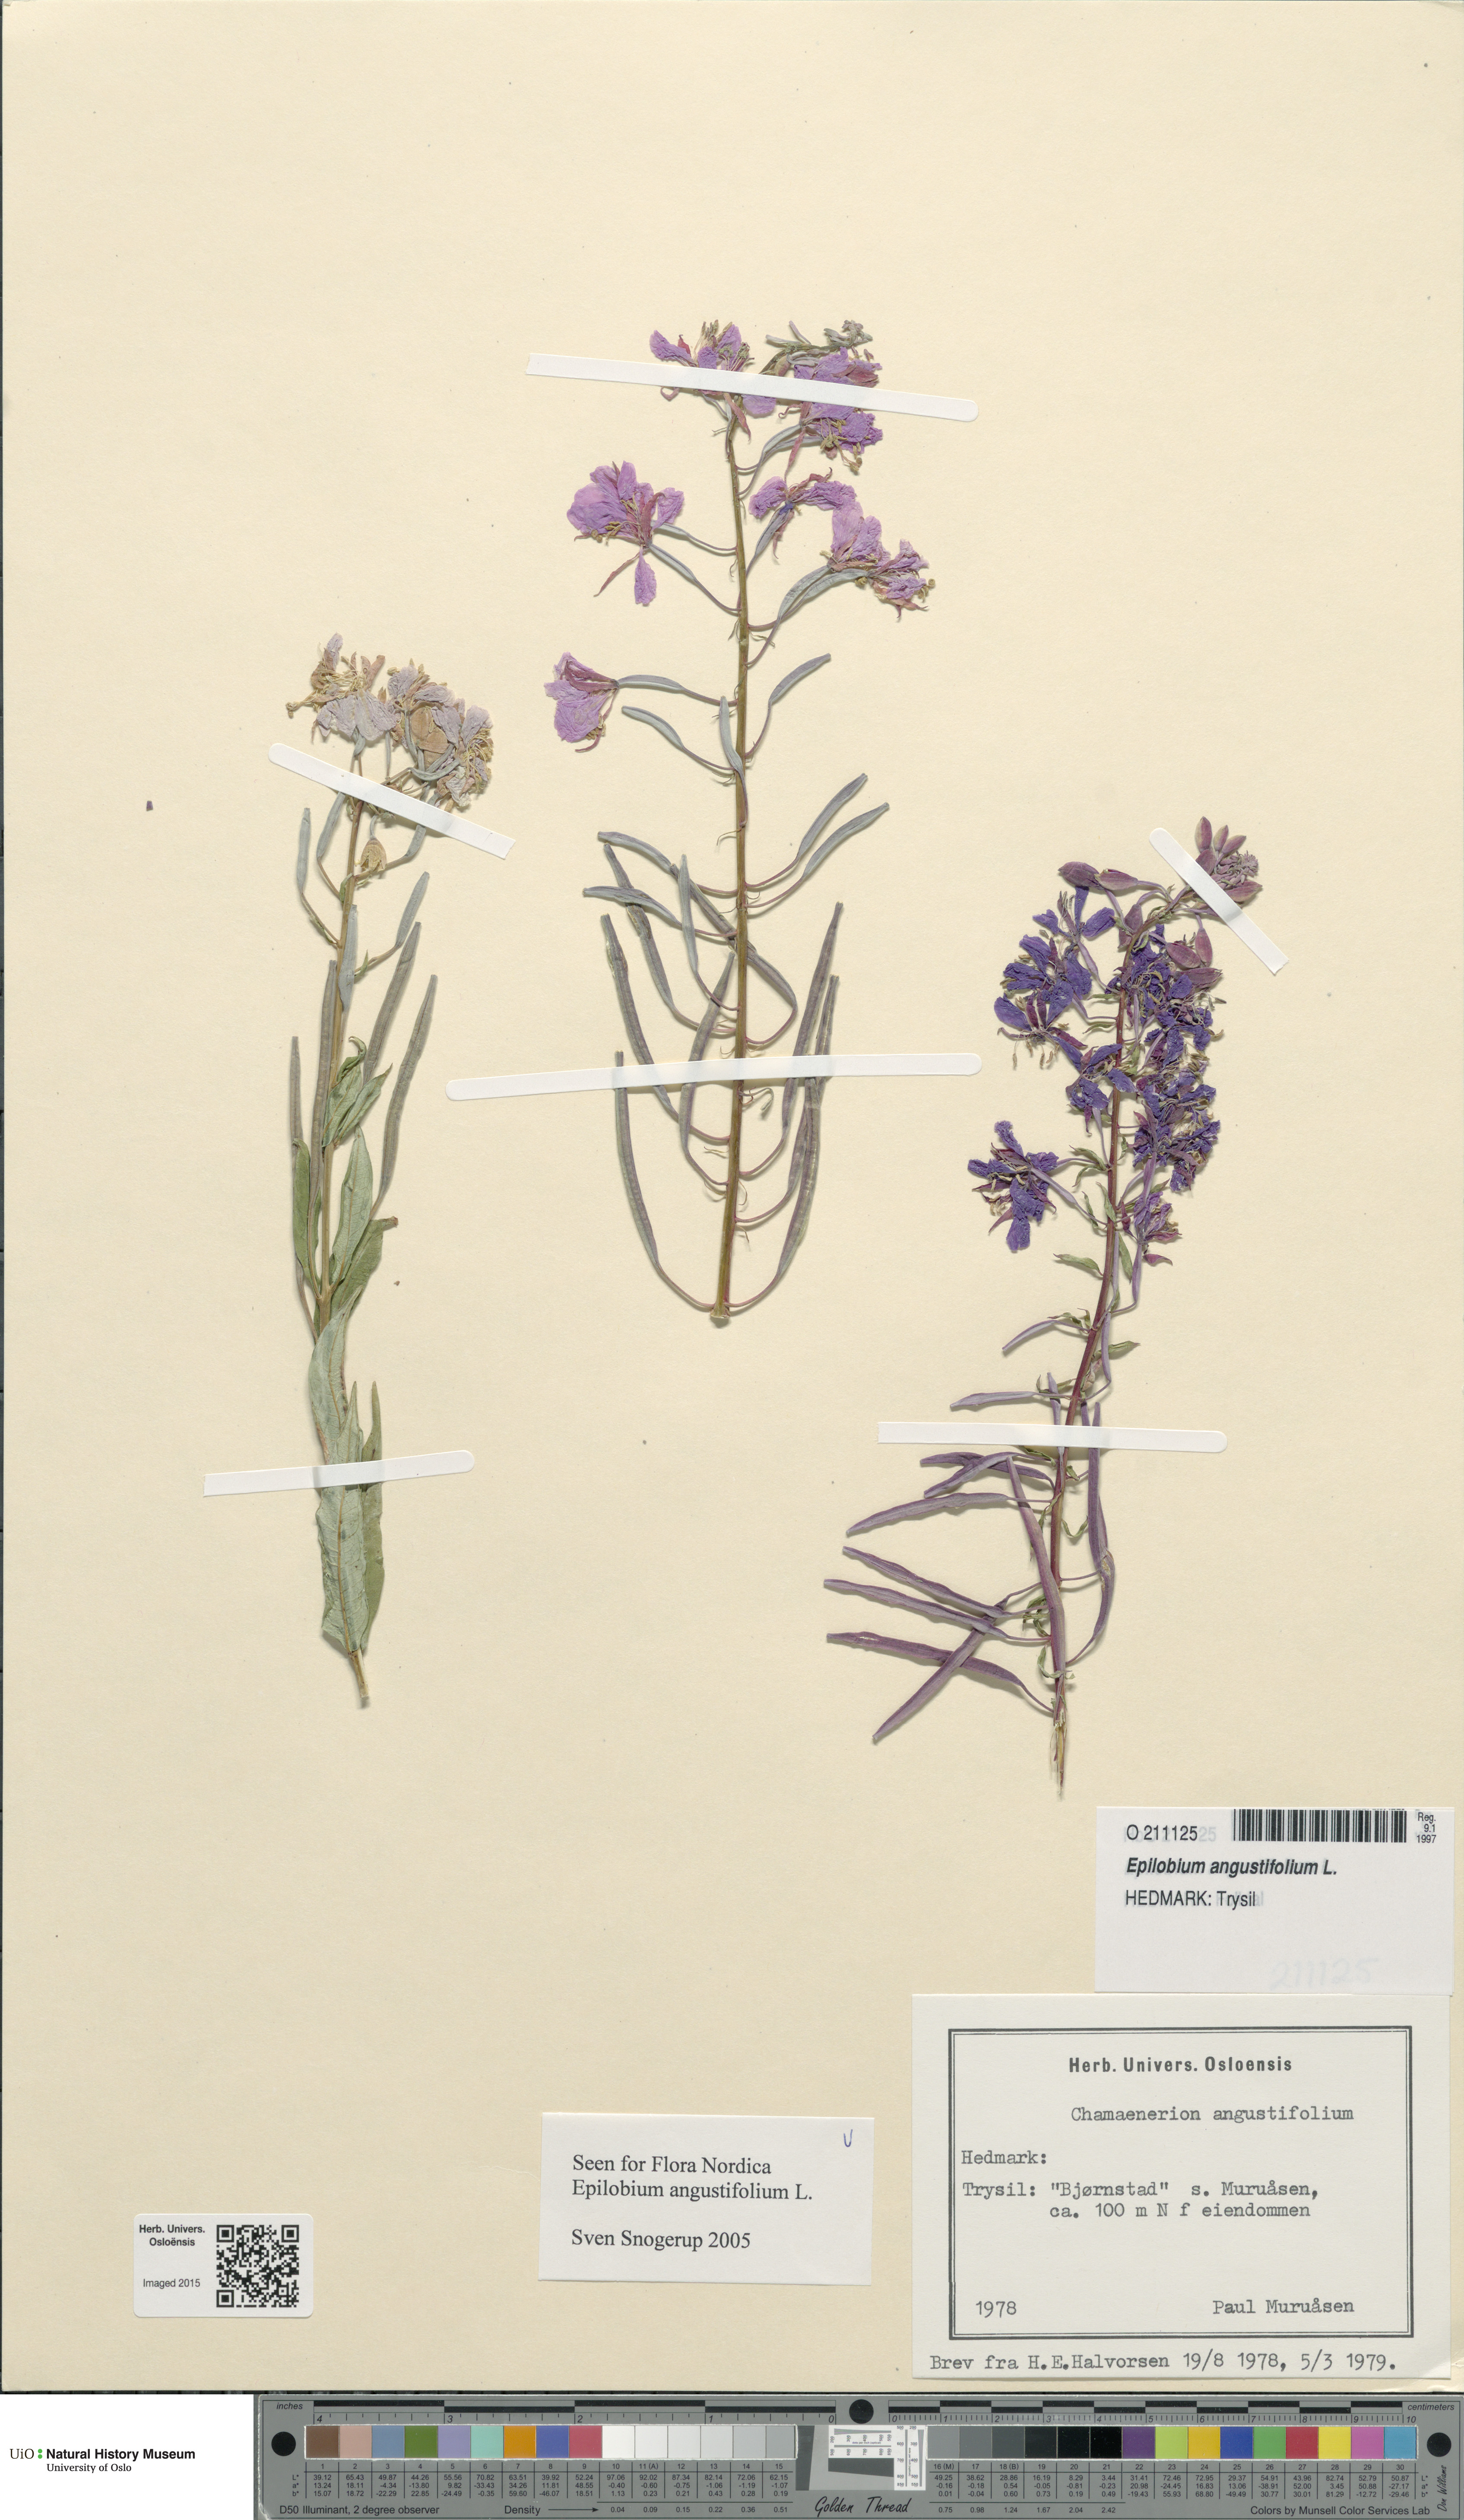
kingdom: Plantae
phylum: Tracheophyta
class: Magnoliopsida
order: Myrtales
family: Onagraceae
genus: Chamaenerion
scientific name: Chamaenerion angustifolium
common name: Fireweed
